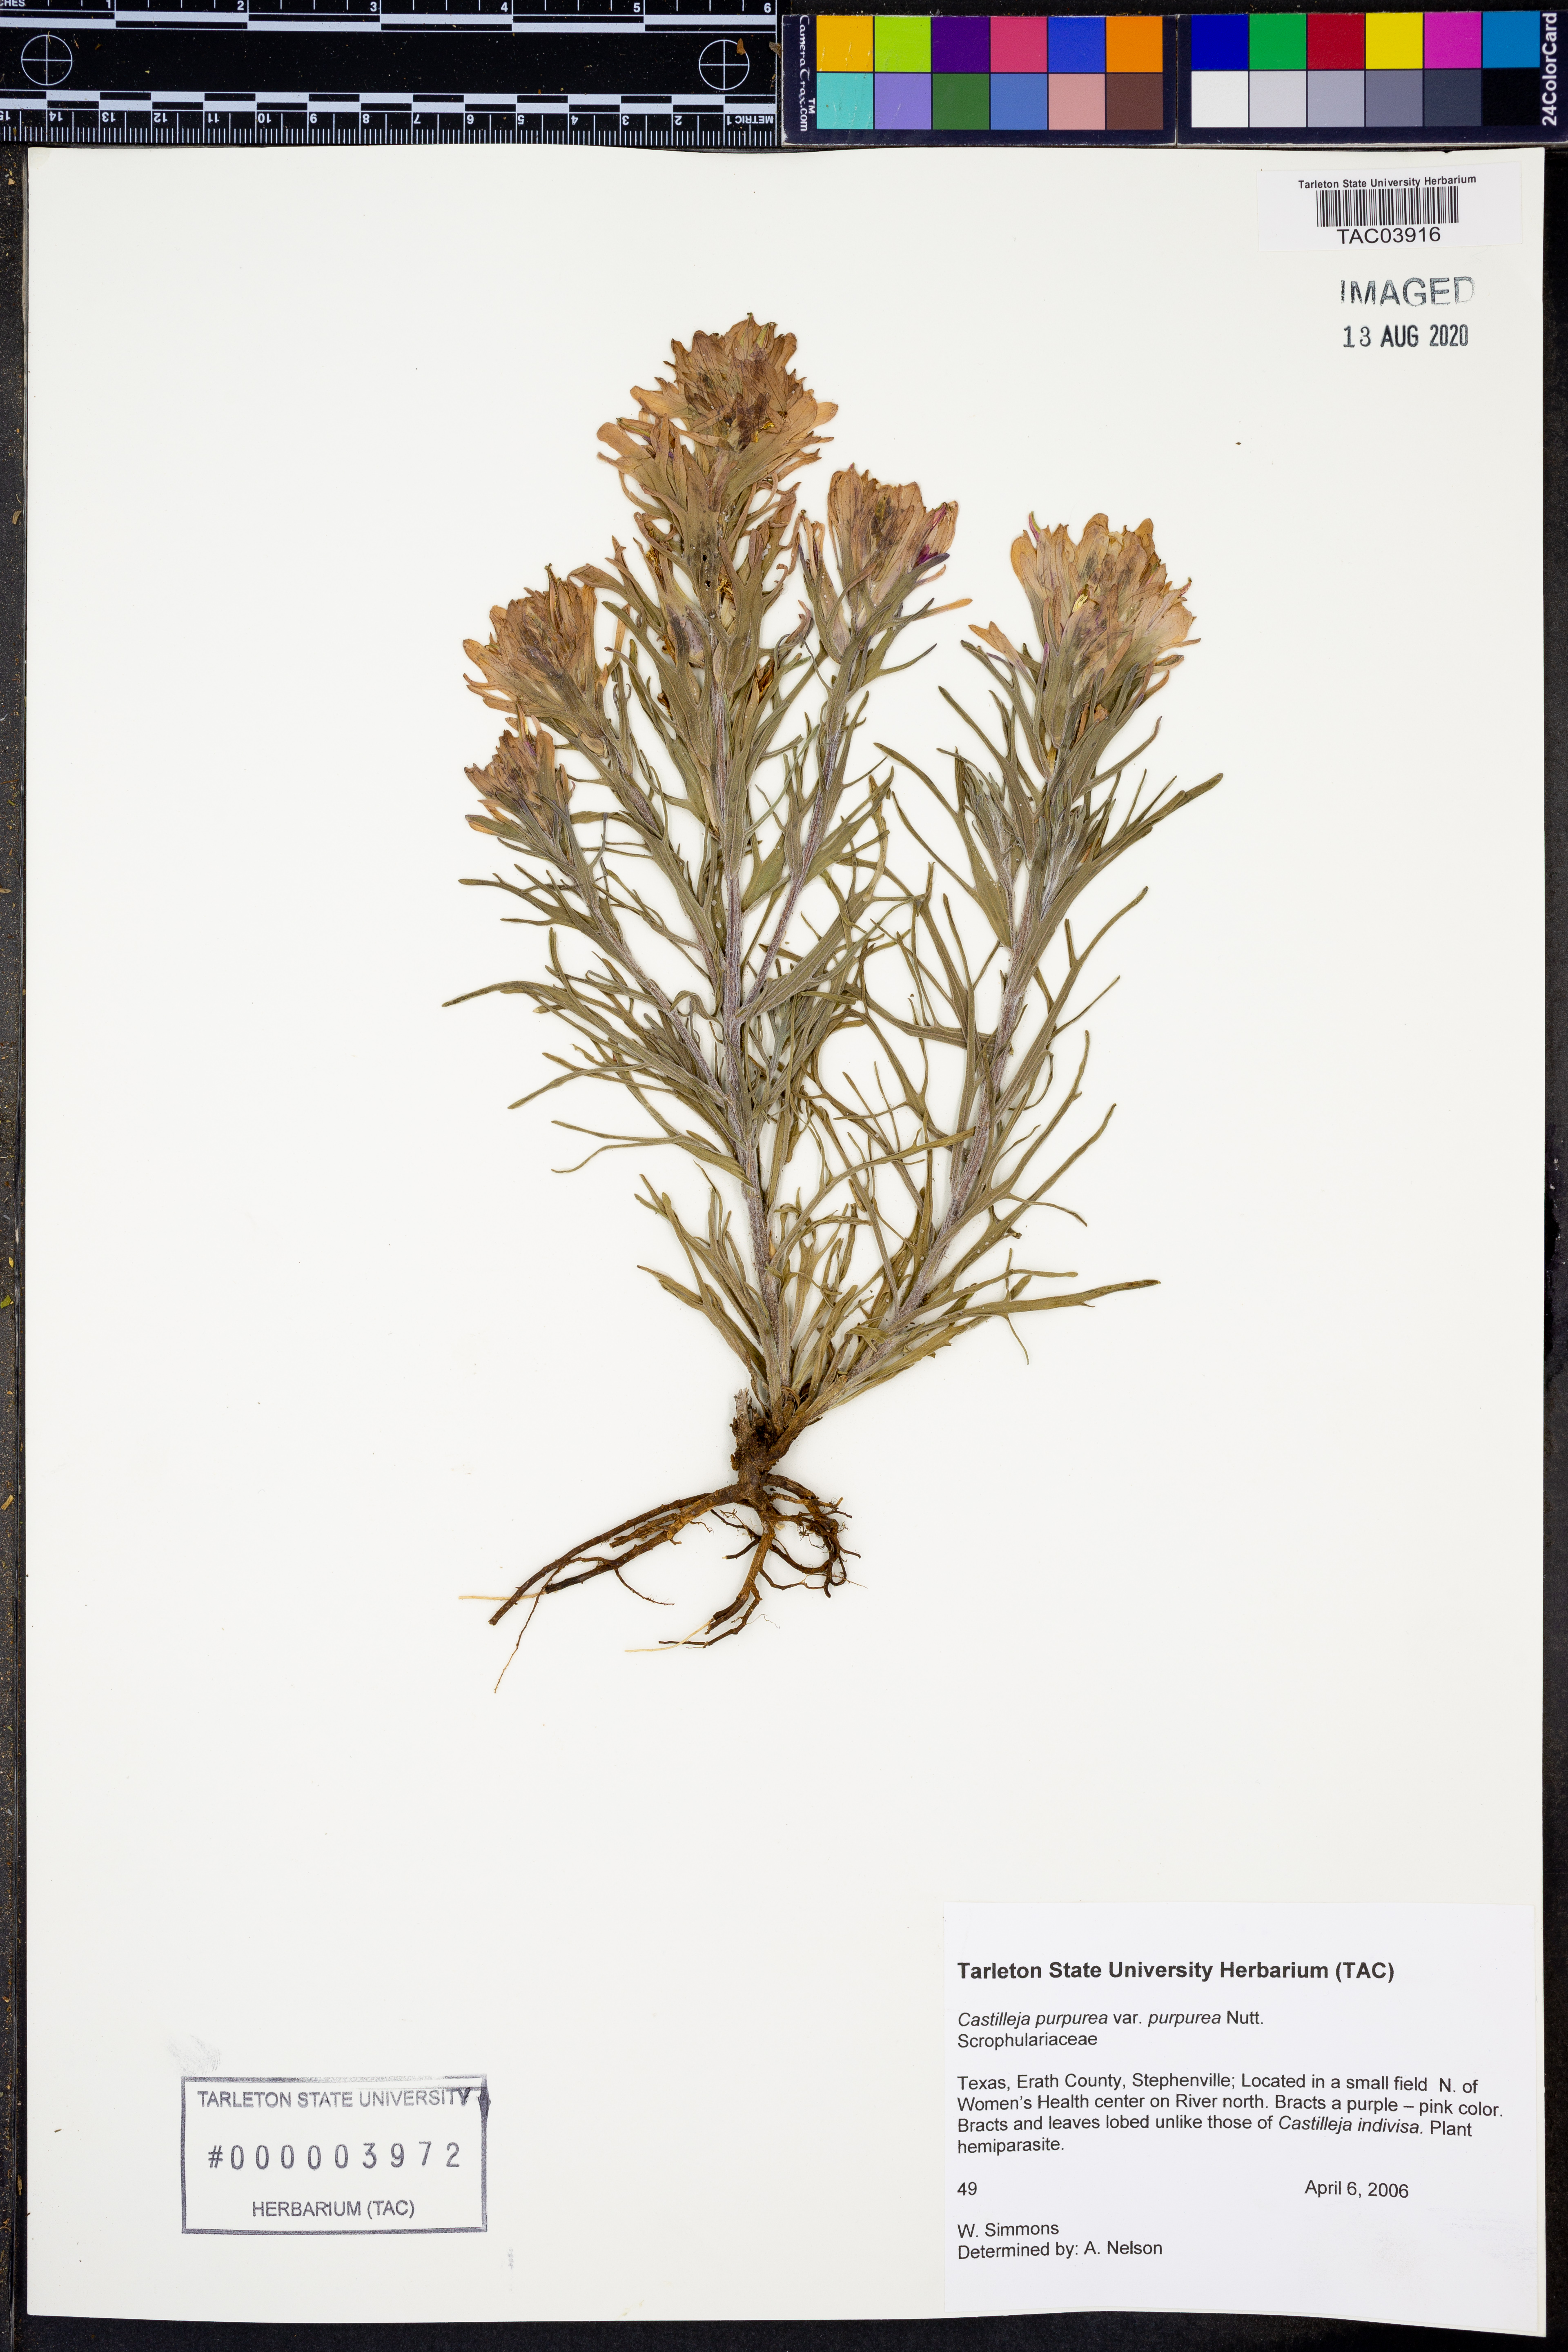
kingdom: Plantae
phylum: Tracheophyta
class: Magnoliopsida
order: Lamiales
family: Orobanchaceae
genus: Castilleja
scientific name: Castilleja purpurea
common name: Plains paintbrush
